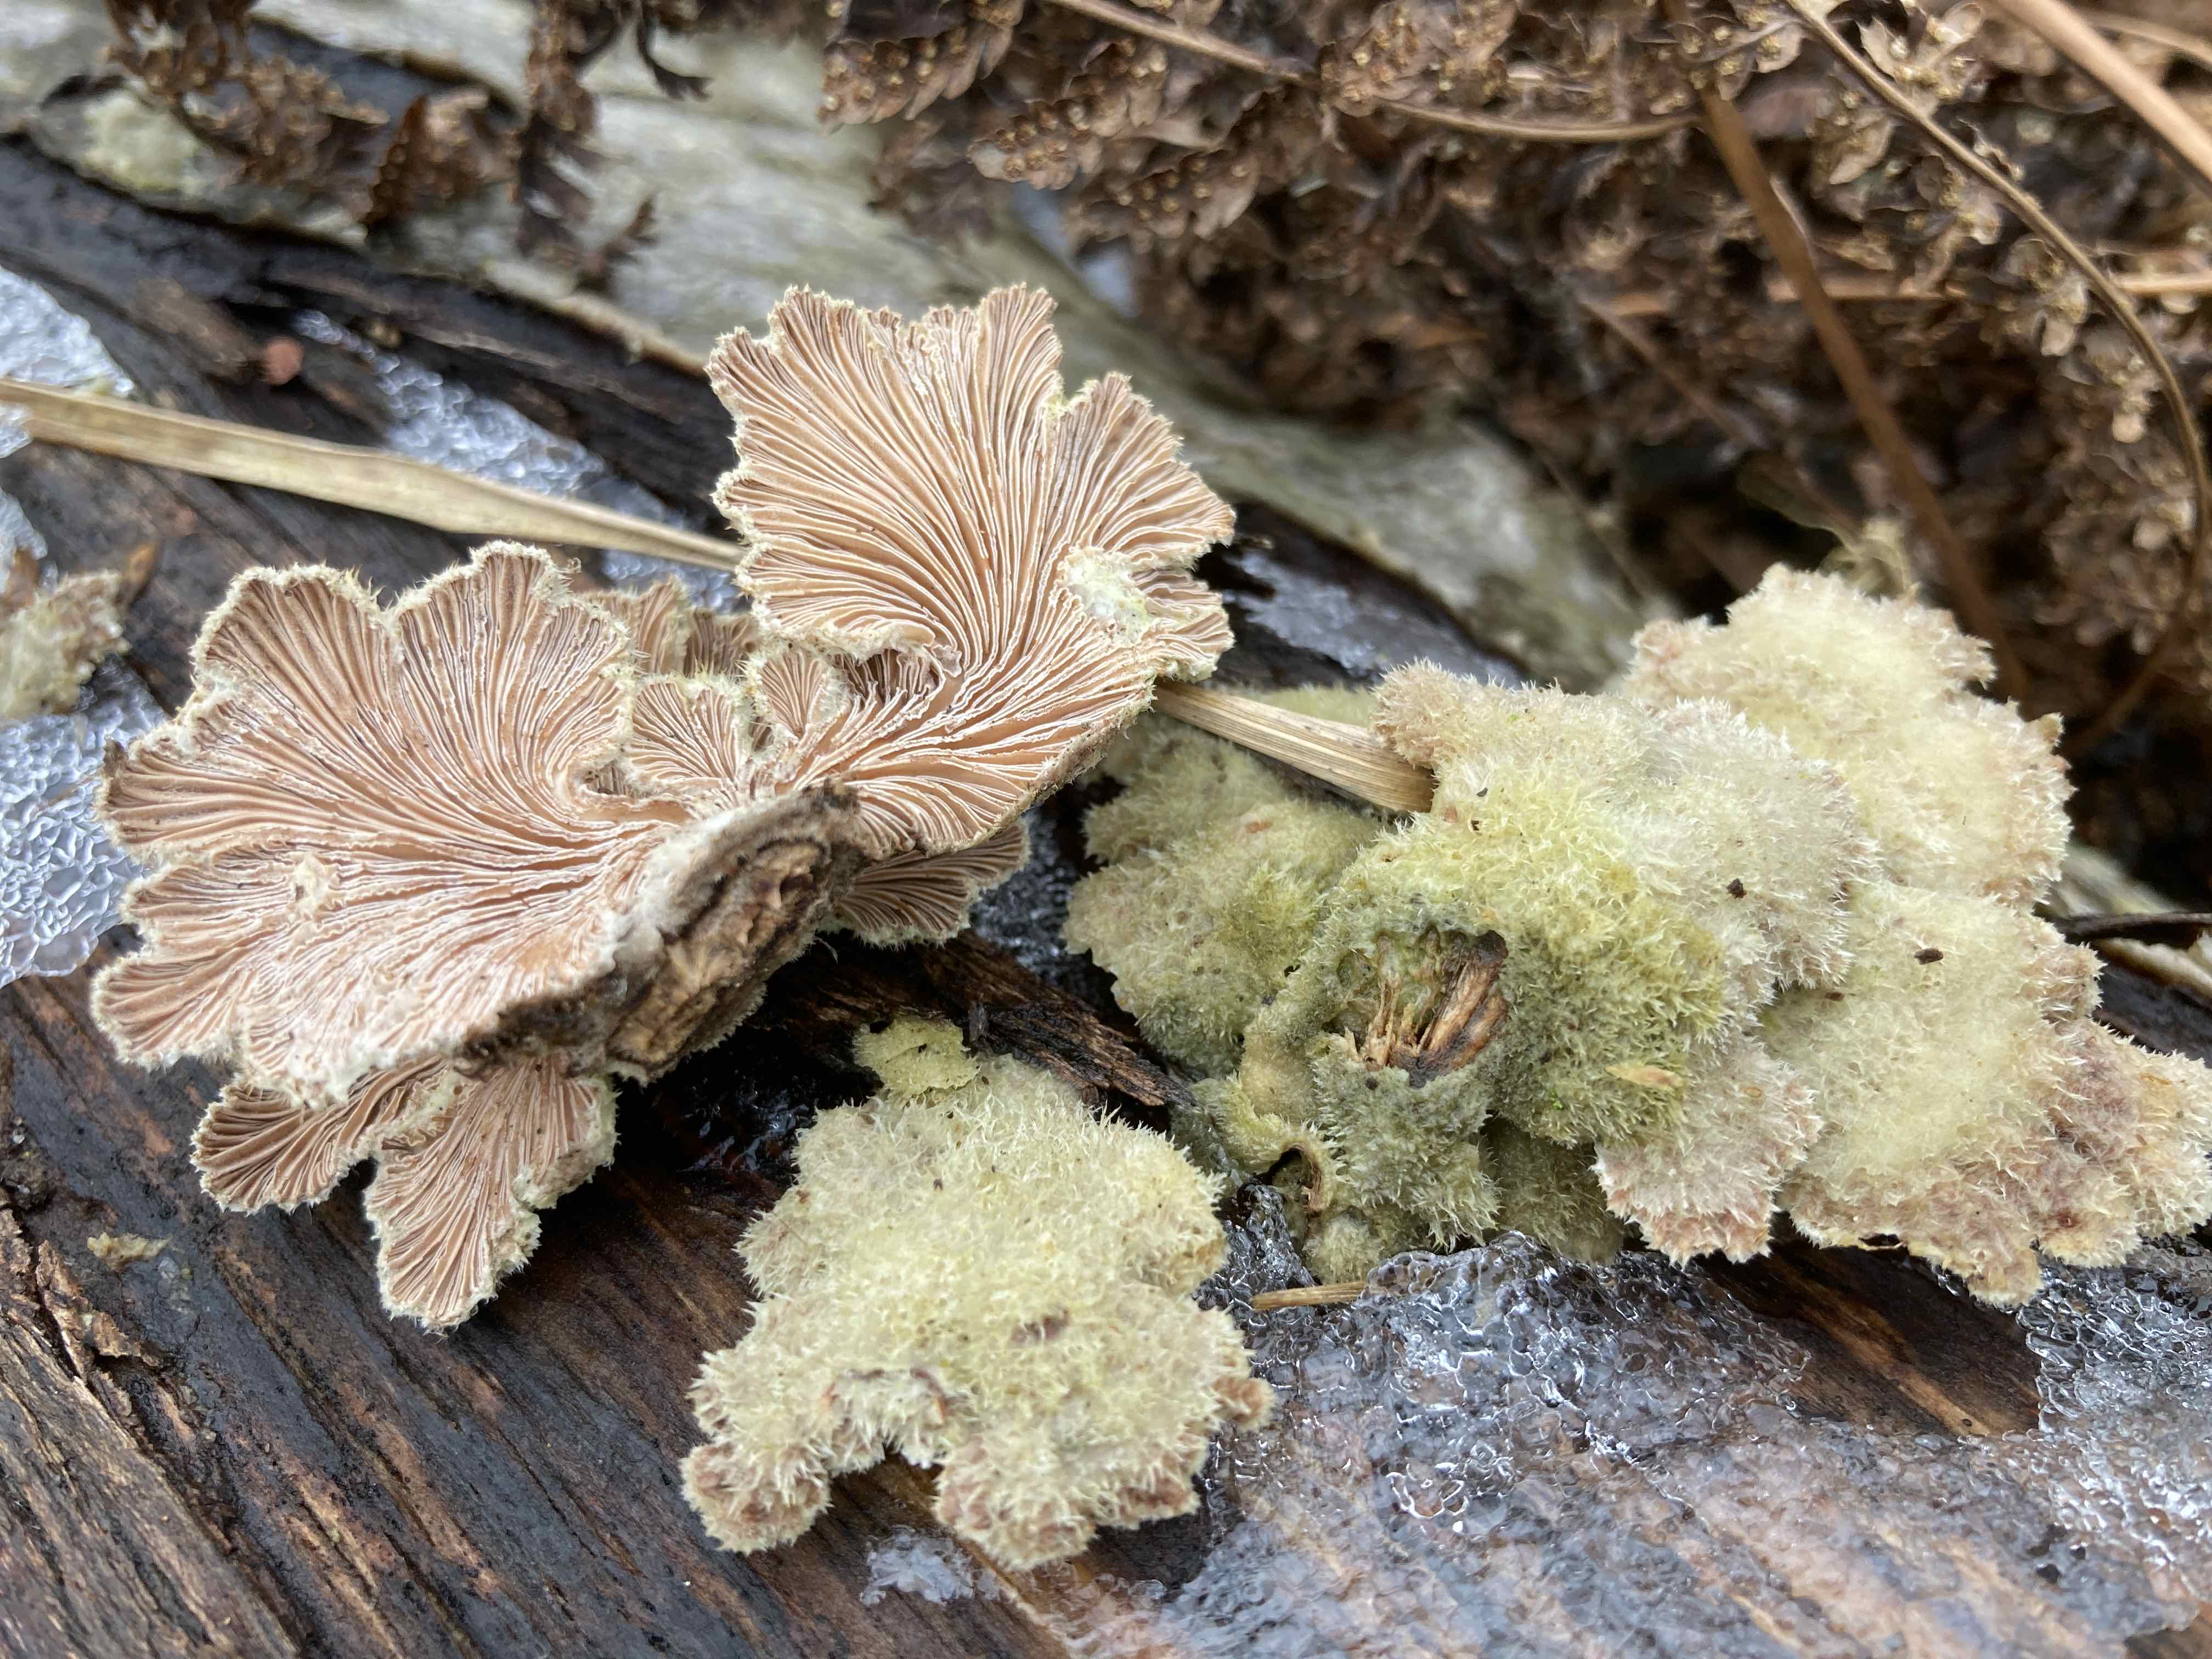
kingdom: Fungi
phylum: Basidiomycota
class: Agaricomycetes
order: Agaricales
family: Schizophyllaceae
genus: Schizophyllum
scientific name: Schizophyllum commune
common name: kløvblad
